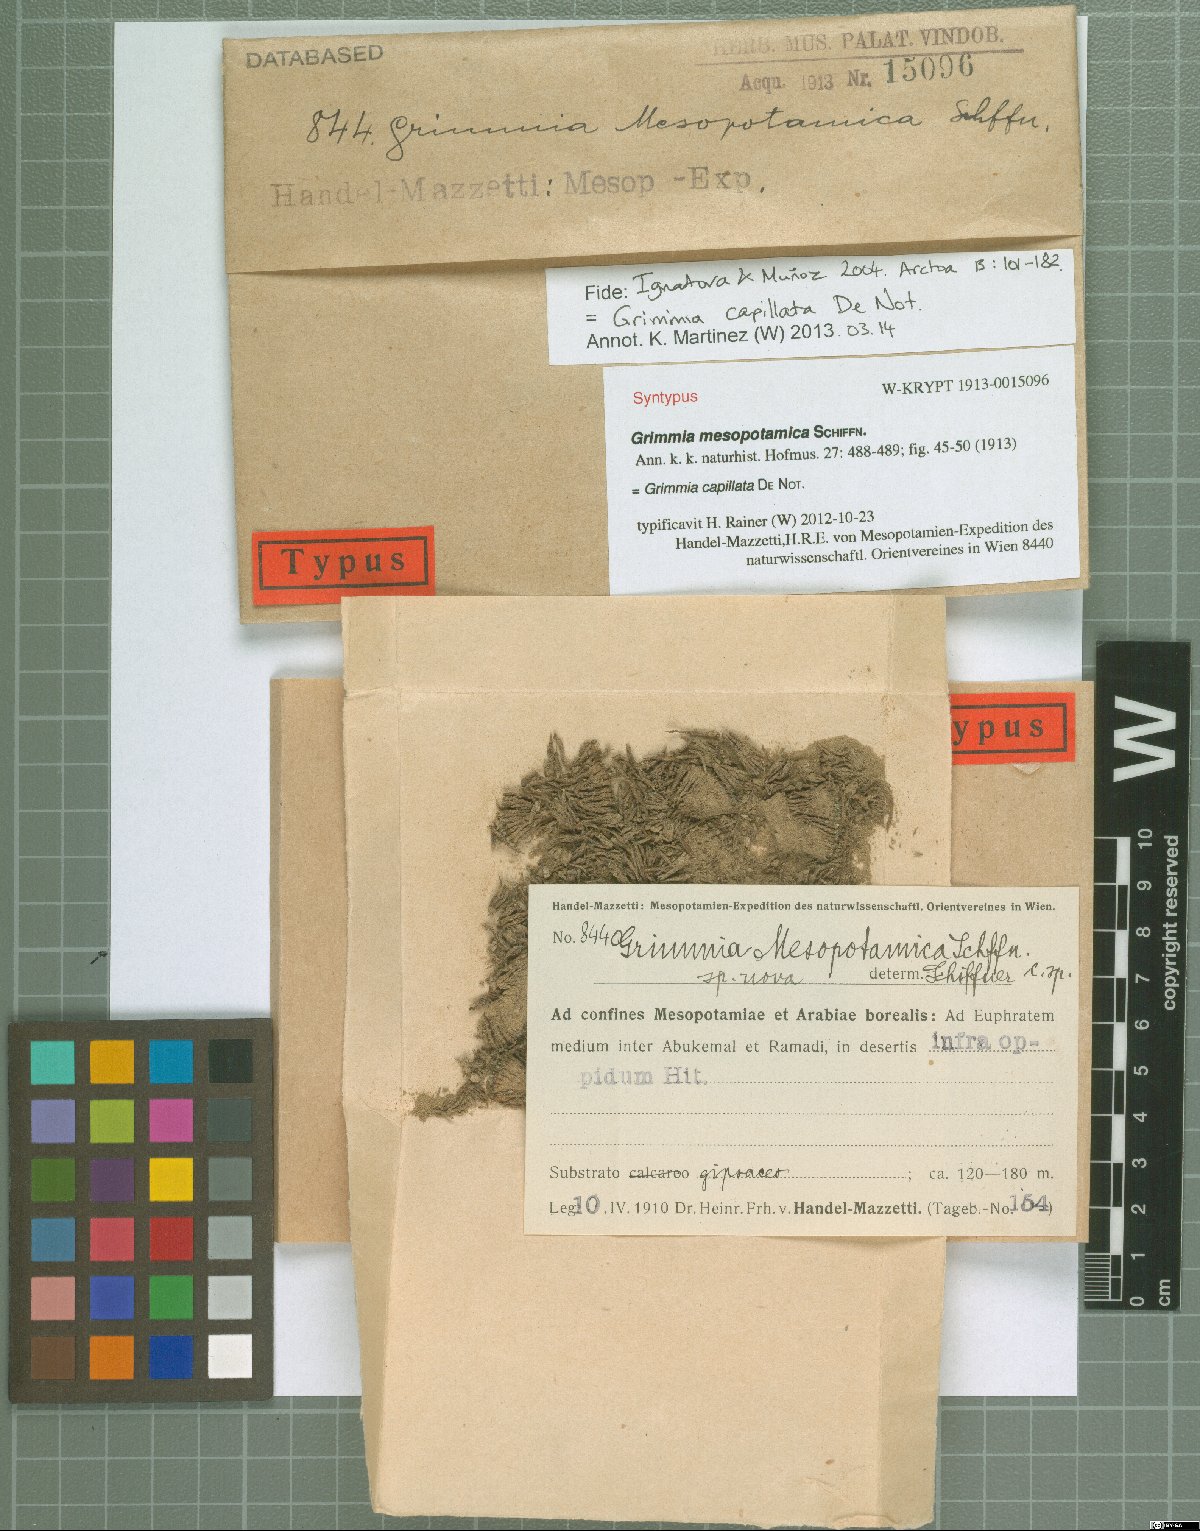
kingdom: Plantae
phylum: Bryophyta
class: Bryopsida
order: Grimmiales
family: Grimmiaceae
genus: Grimmia
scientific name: Grimmia capillata
